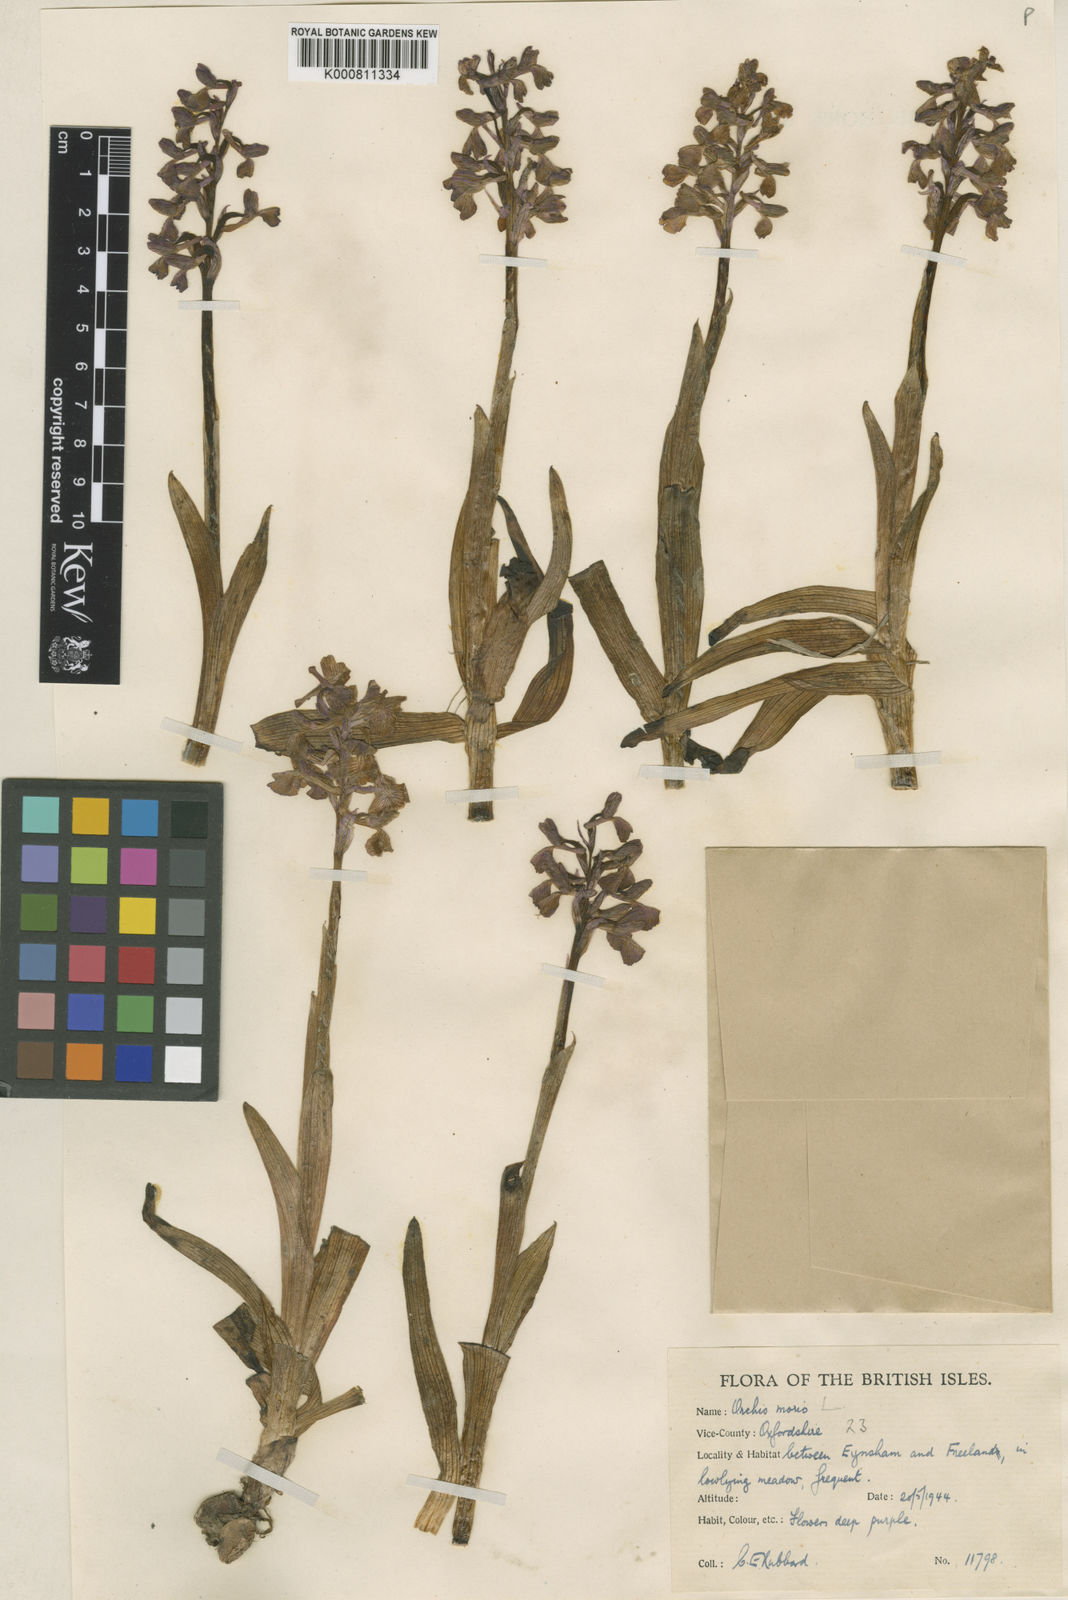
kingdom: Plantae
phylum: Tracheophyta
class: Liliopsida
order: Asparagales
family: Orchidaceae
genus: Anacamptis
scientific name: Anacamptis morio
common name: Green-winged orchid
